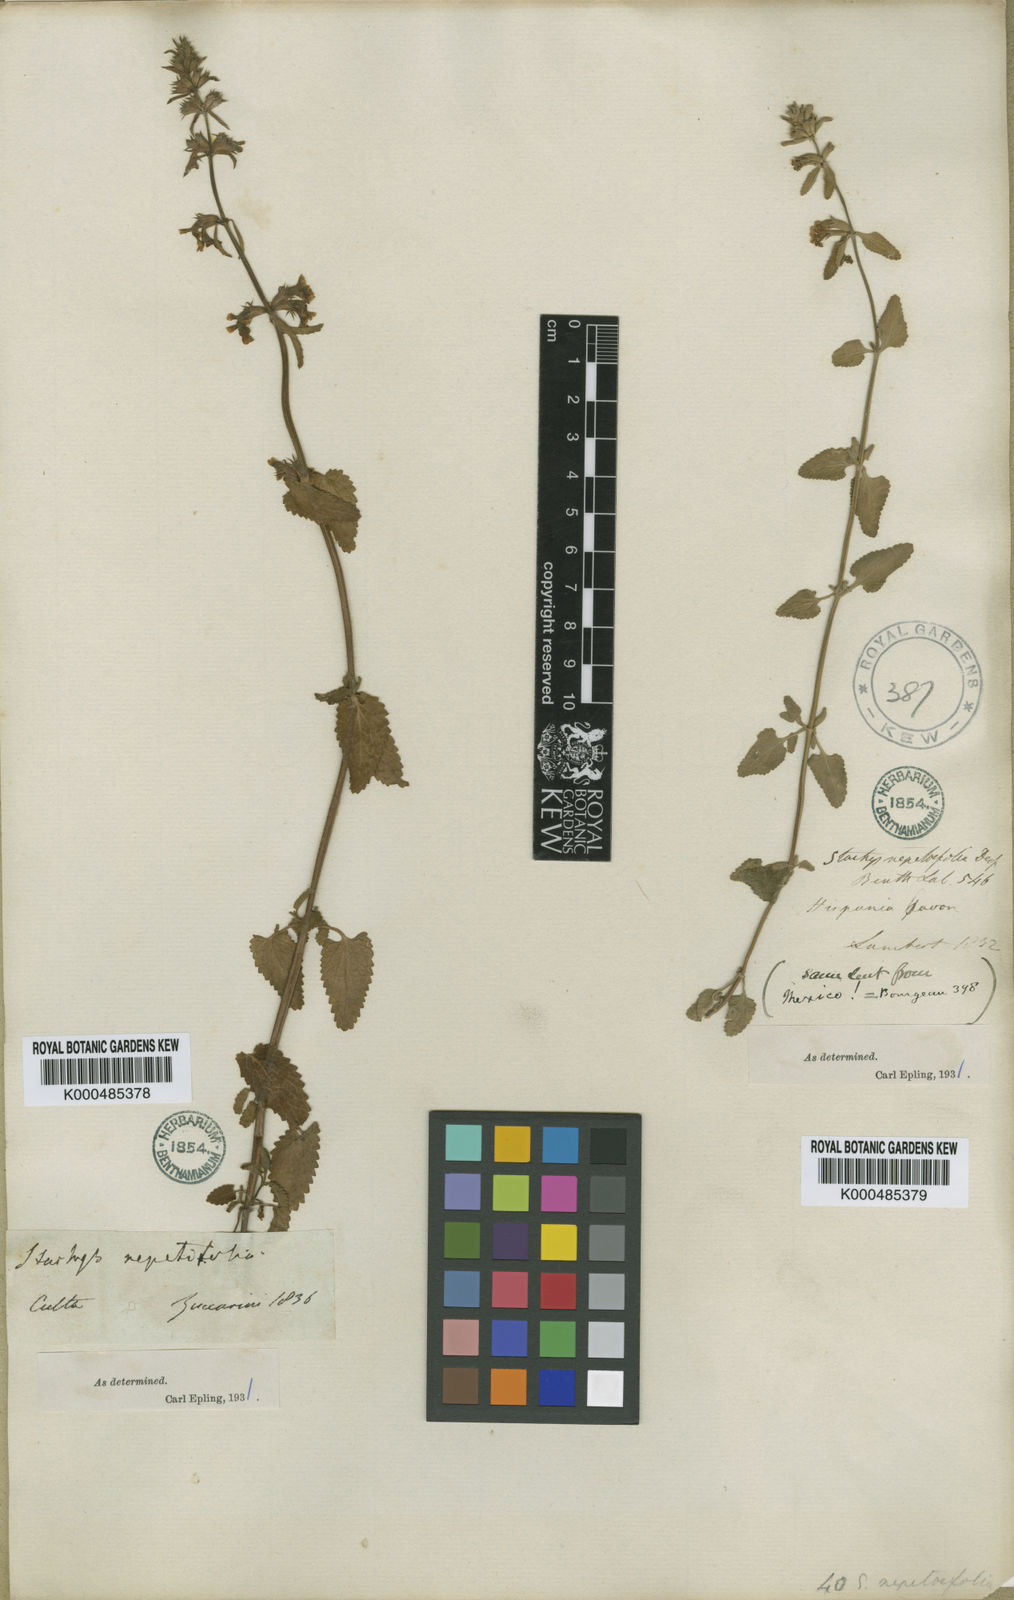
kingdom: Plantae
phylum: Tracheophyta
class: Magnoliopsida
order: Lamiales
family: Lamiaceae
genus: Stachys
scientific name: Stachys nepetifolia
